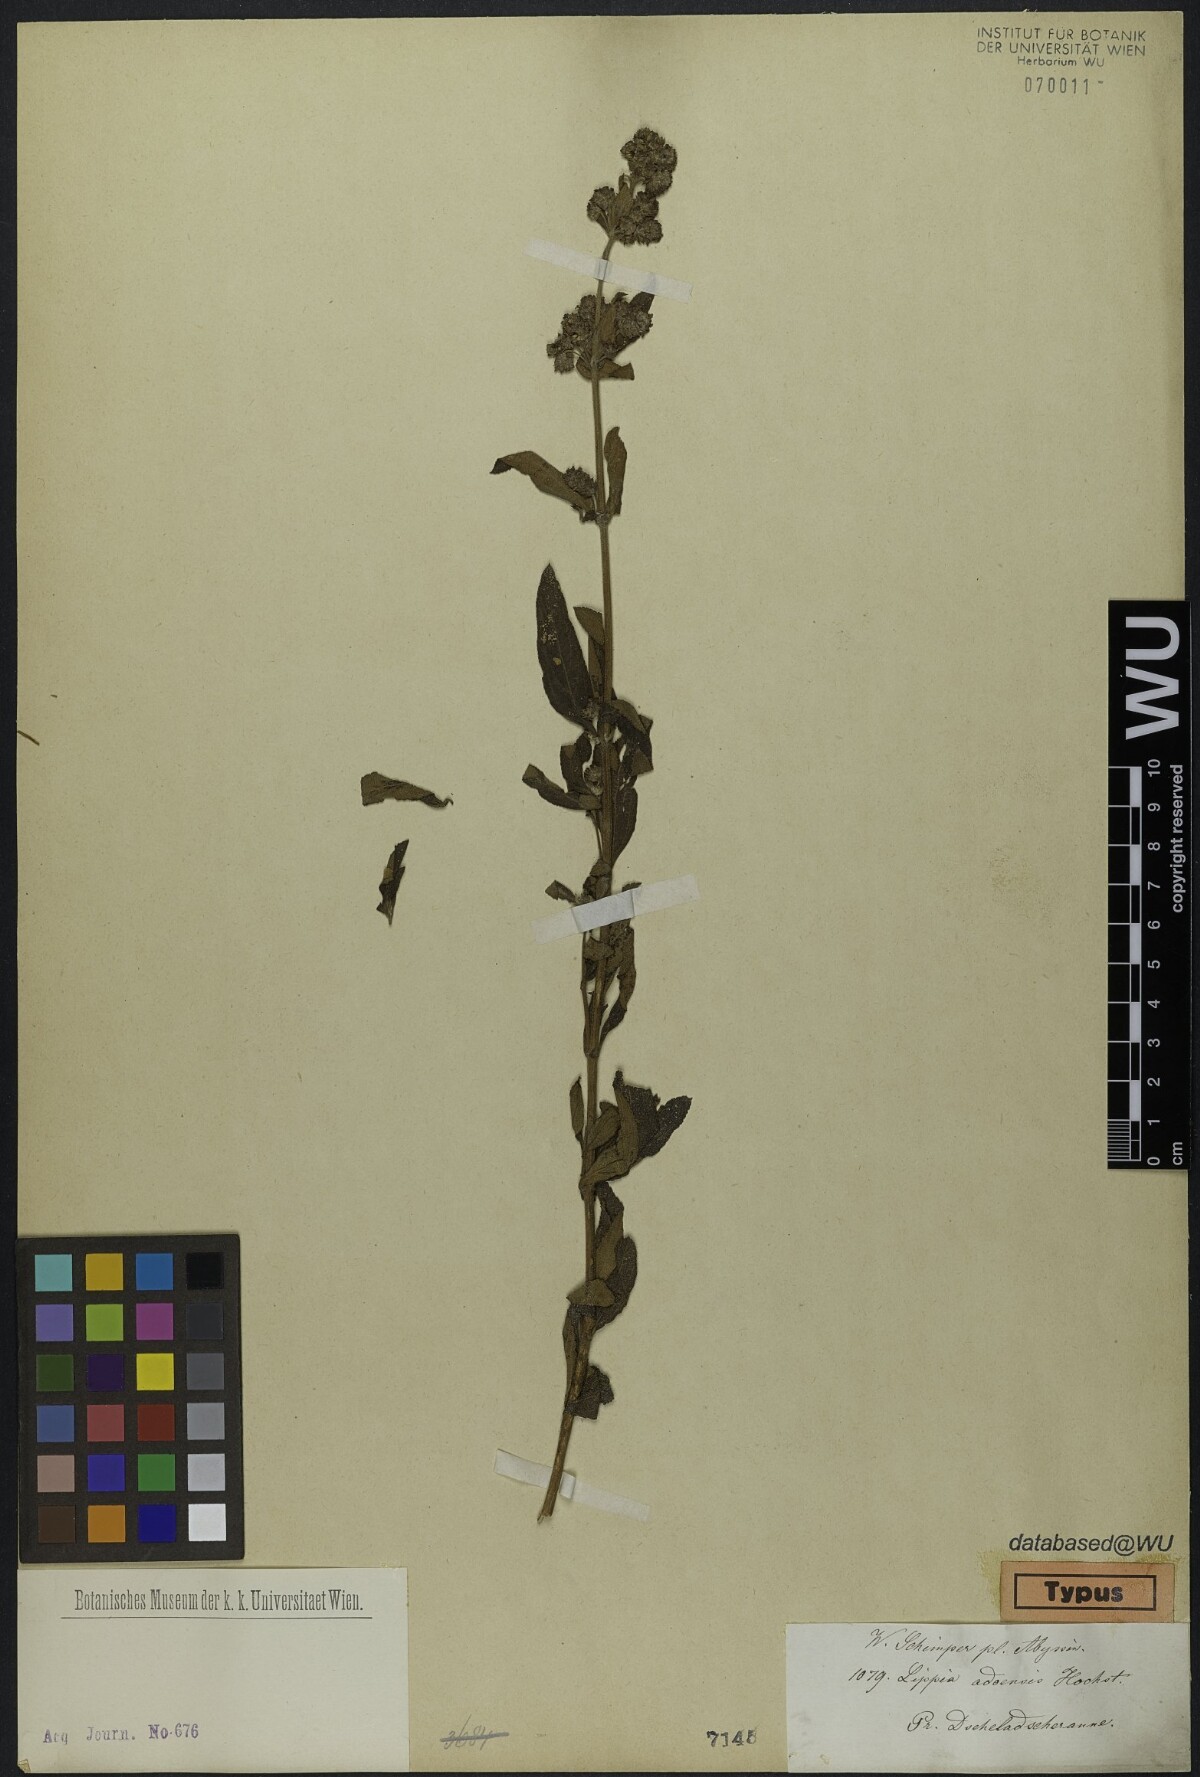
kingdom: Plantae
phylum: Tracheophyta
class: Magnoliopsida
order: Lamiales
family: Verbenaceae
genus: Lippia
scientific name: Lippia abyssinica
